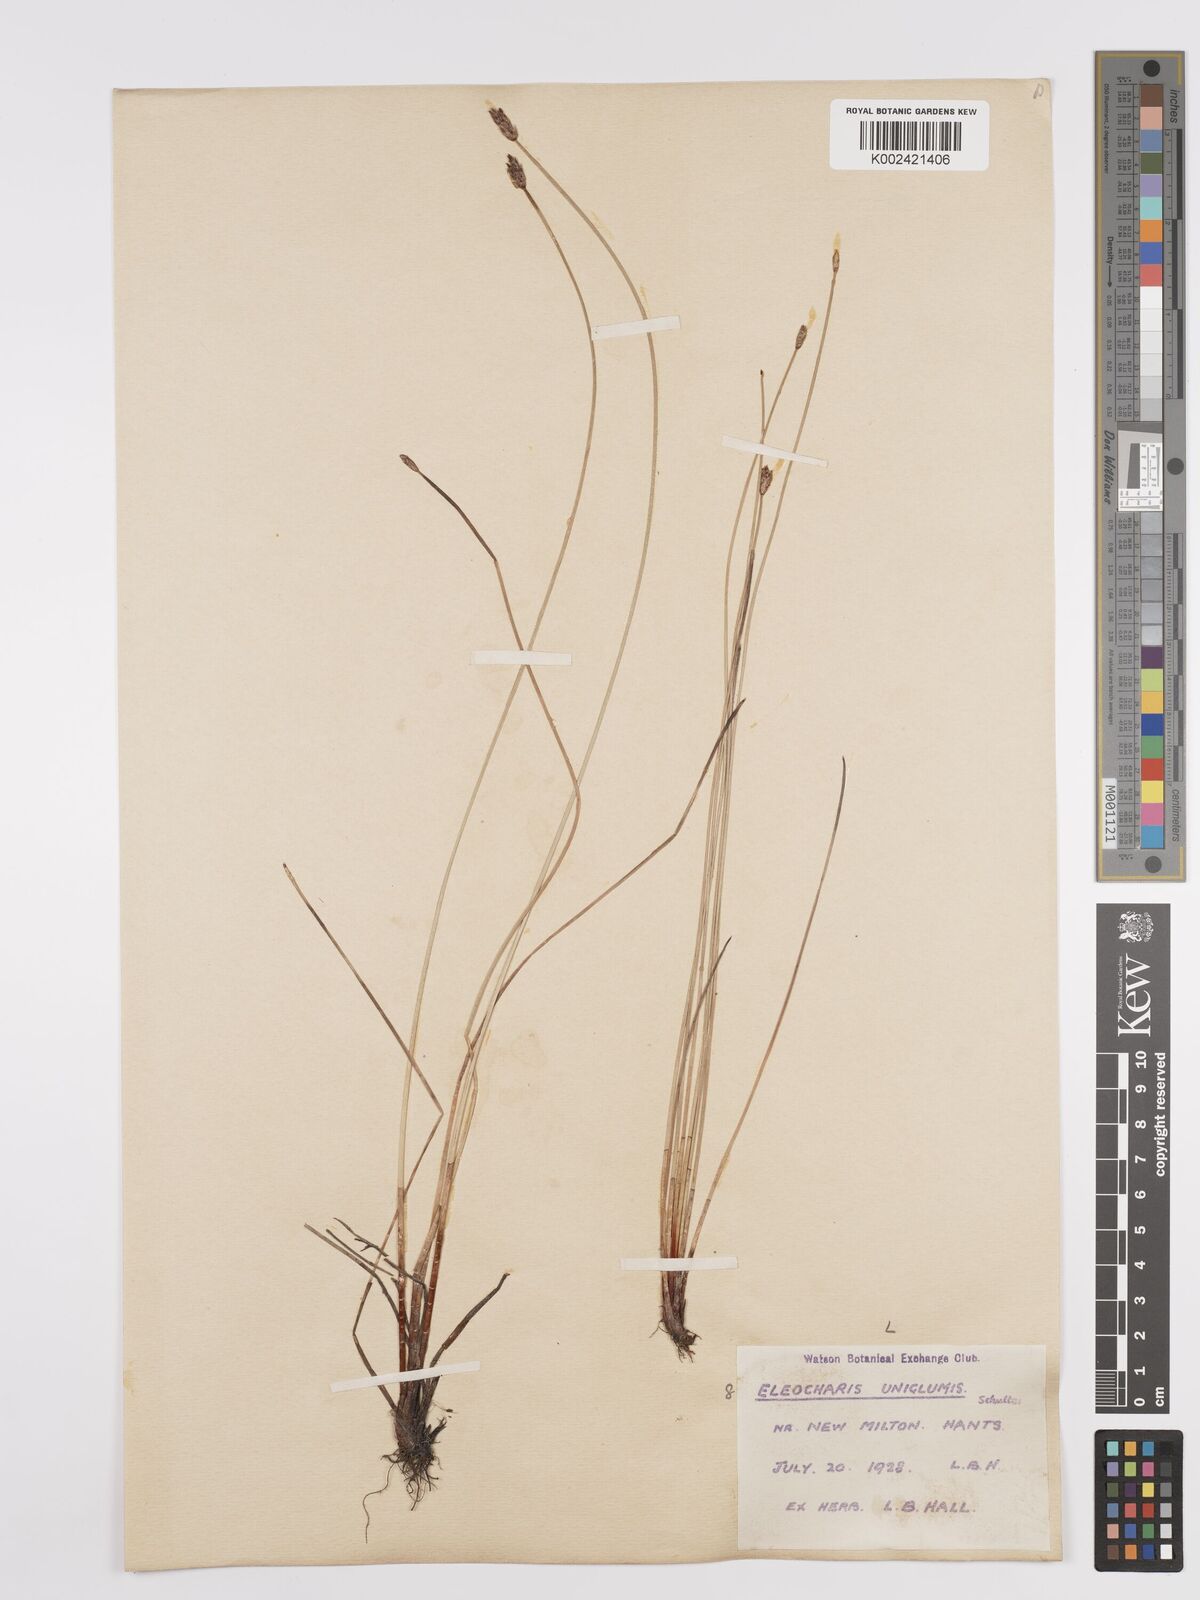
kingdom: Plantae
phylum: Tracheophyta
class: Liliopsida
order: Poales
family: Cyperaceae
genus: Eleocharis
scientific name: Eleocharis uniglumis
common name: Slender spike-rush
